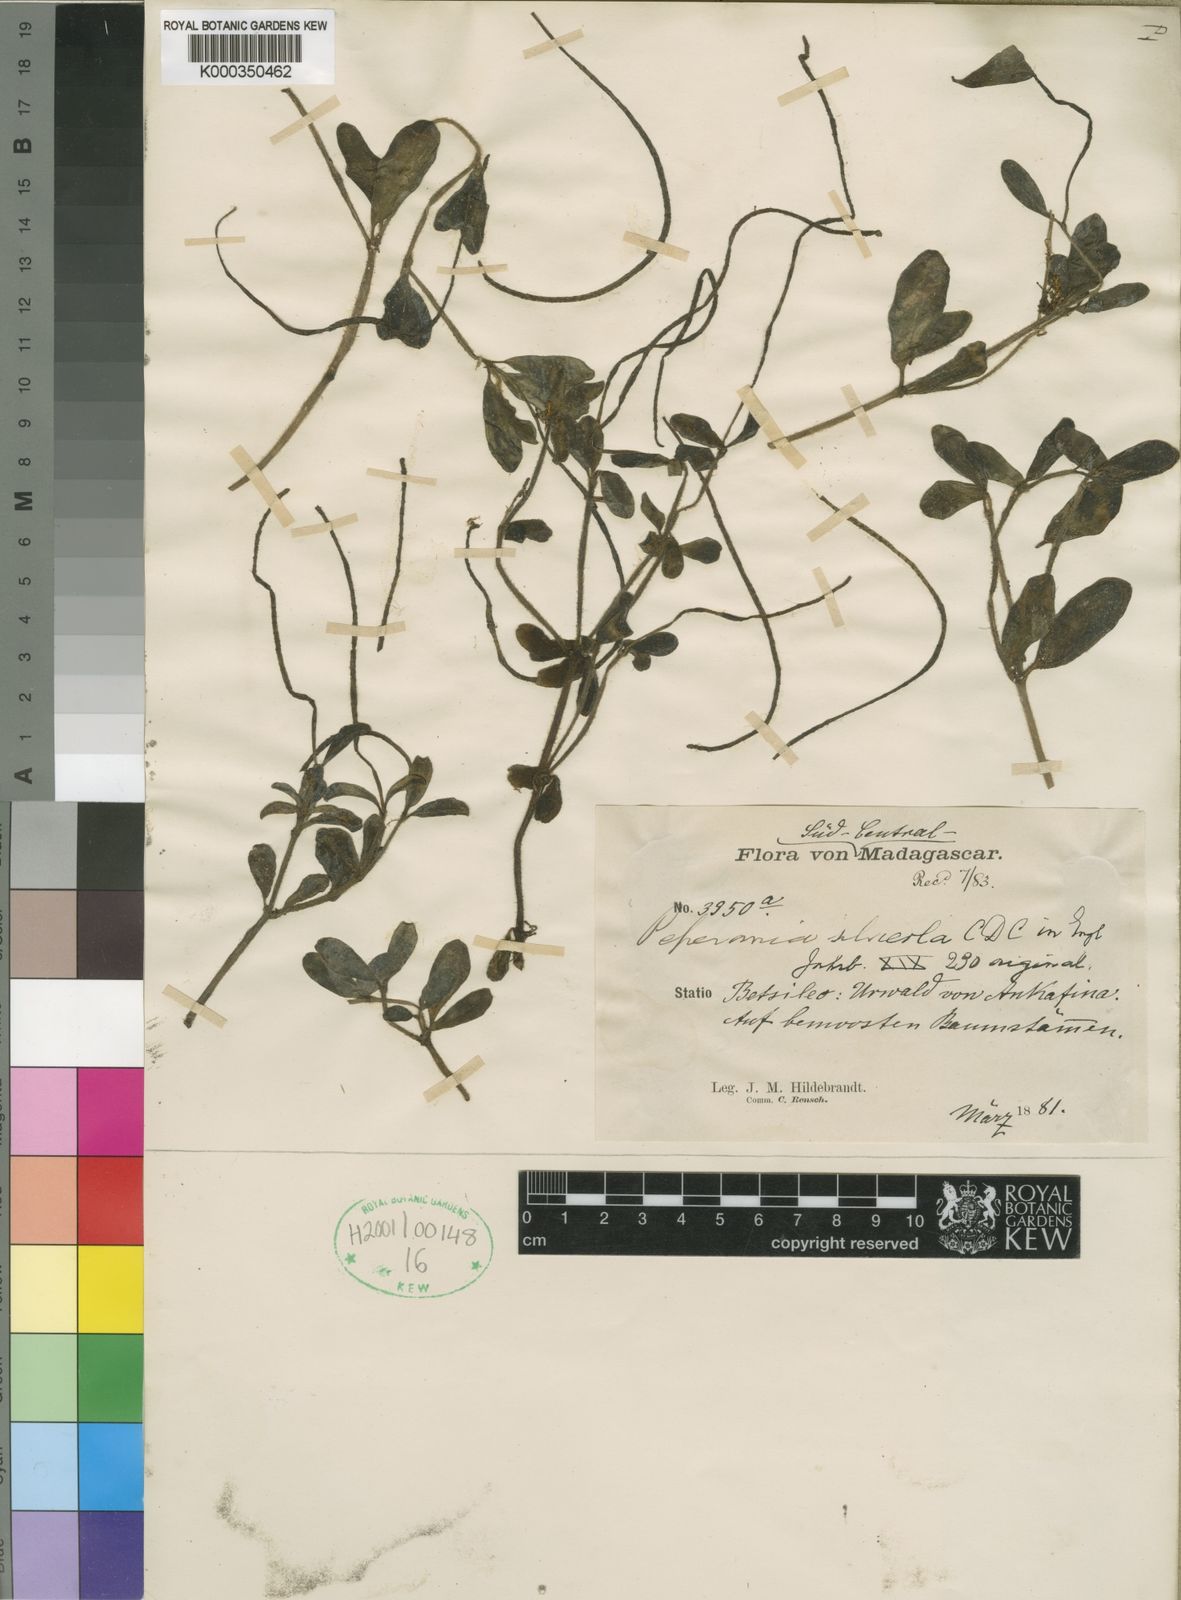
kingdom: Plantae
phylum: Tracheophyta
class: Magnoliopsida
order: Piperales
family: Piperaceae
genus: Peperomia
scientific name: Peperomia silvicola
